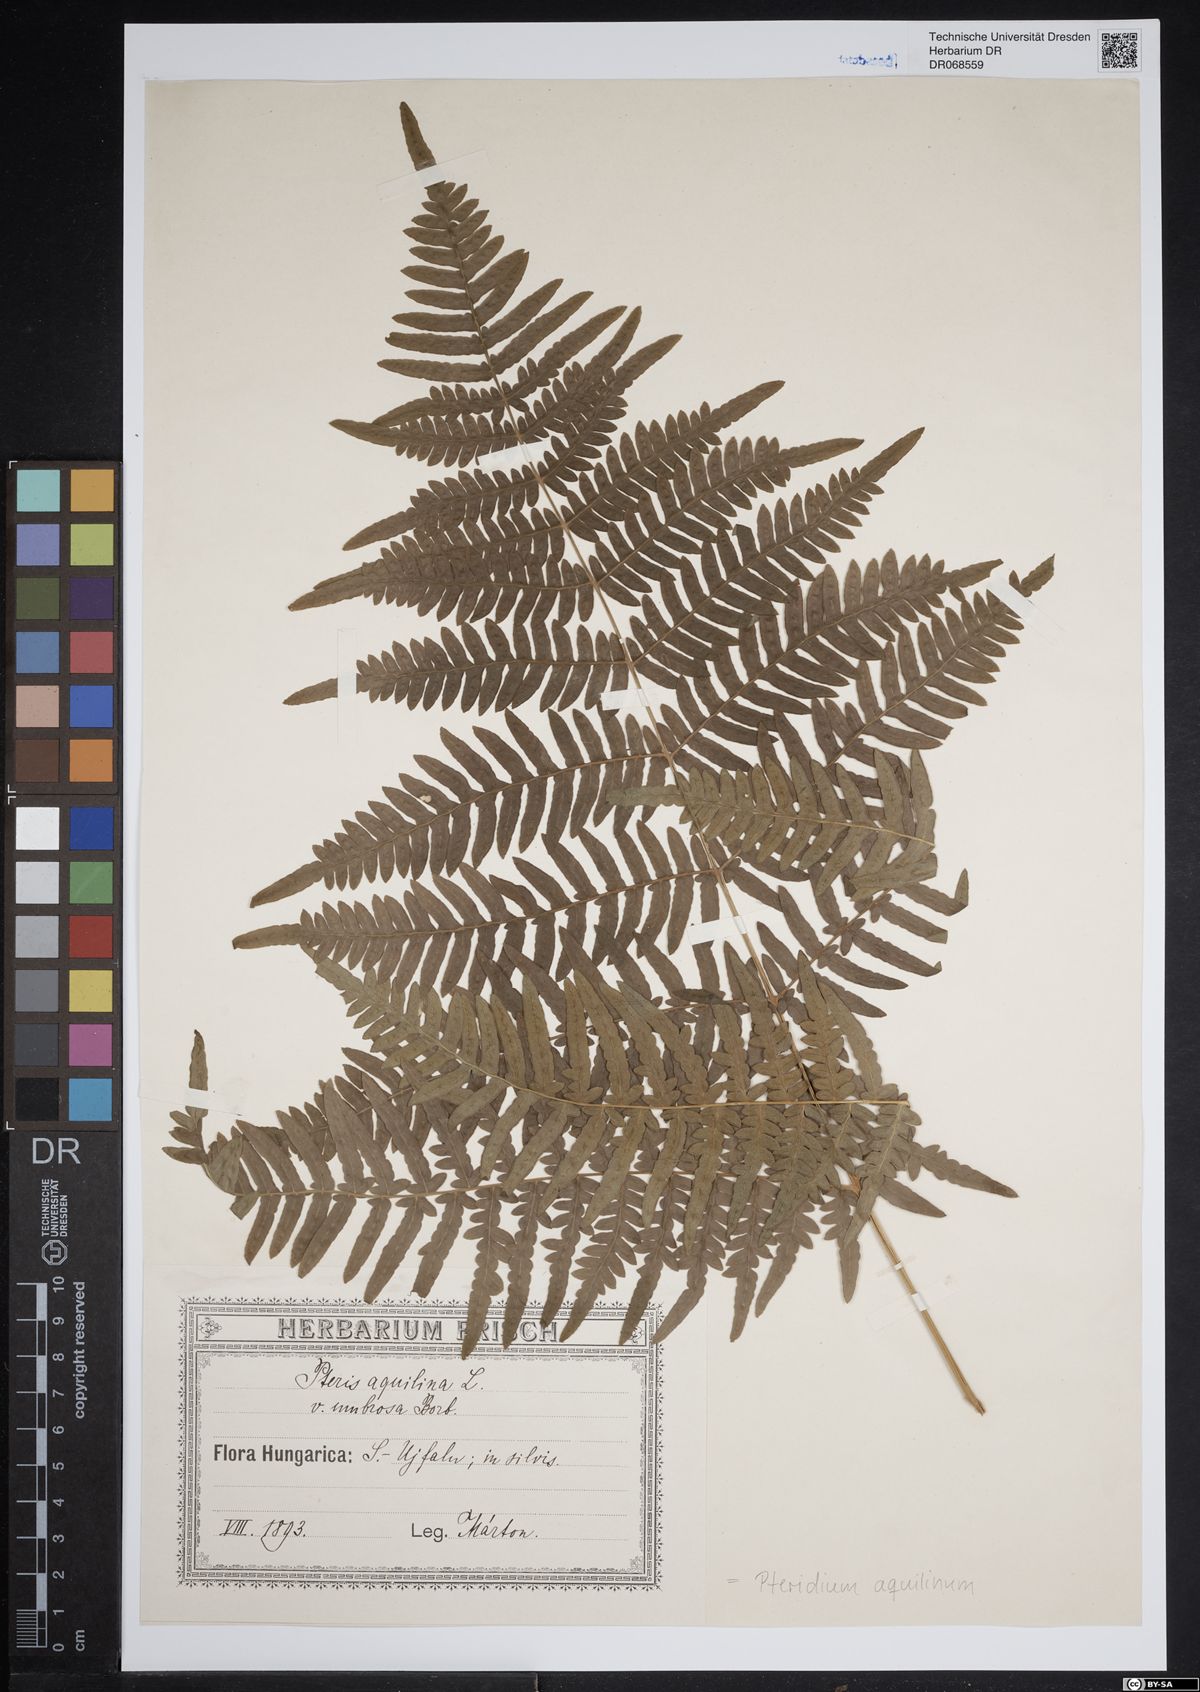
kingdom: Plantae
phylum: Tracheophyta
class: Polypodiopsida
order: Polypodiales
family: Dennstaedtiaceae
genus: Pteridium
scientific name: Pteridium aquilinum
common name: Bracken
